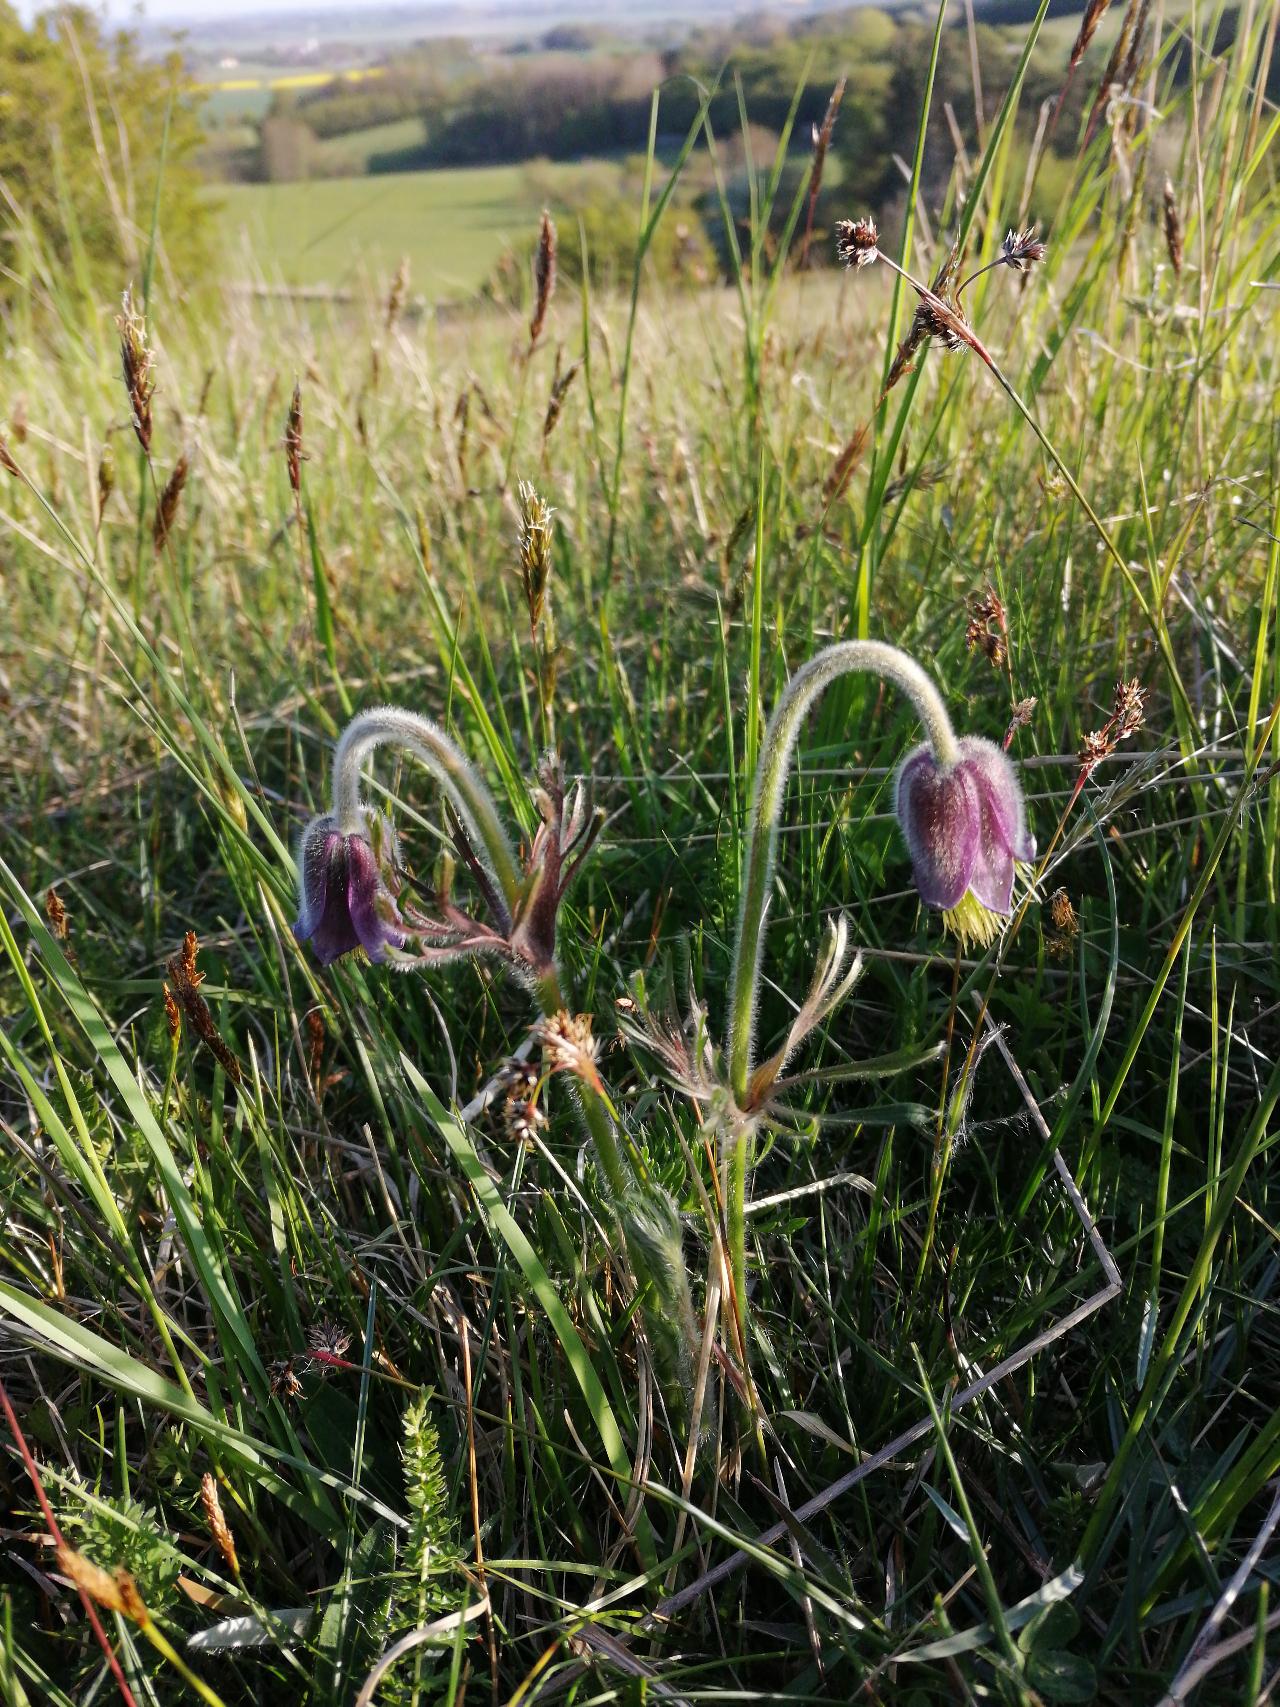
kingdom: Plantae
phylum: Tracheophyta
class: Magnoliopsida
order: Ranunculales
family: Ranunculaceae
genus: Pulsatilla
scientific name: Pulsatilla pratensis
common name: Nikkende kobjælde
